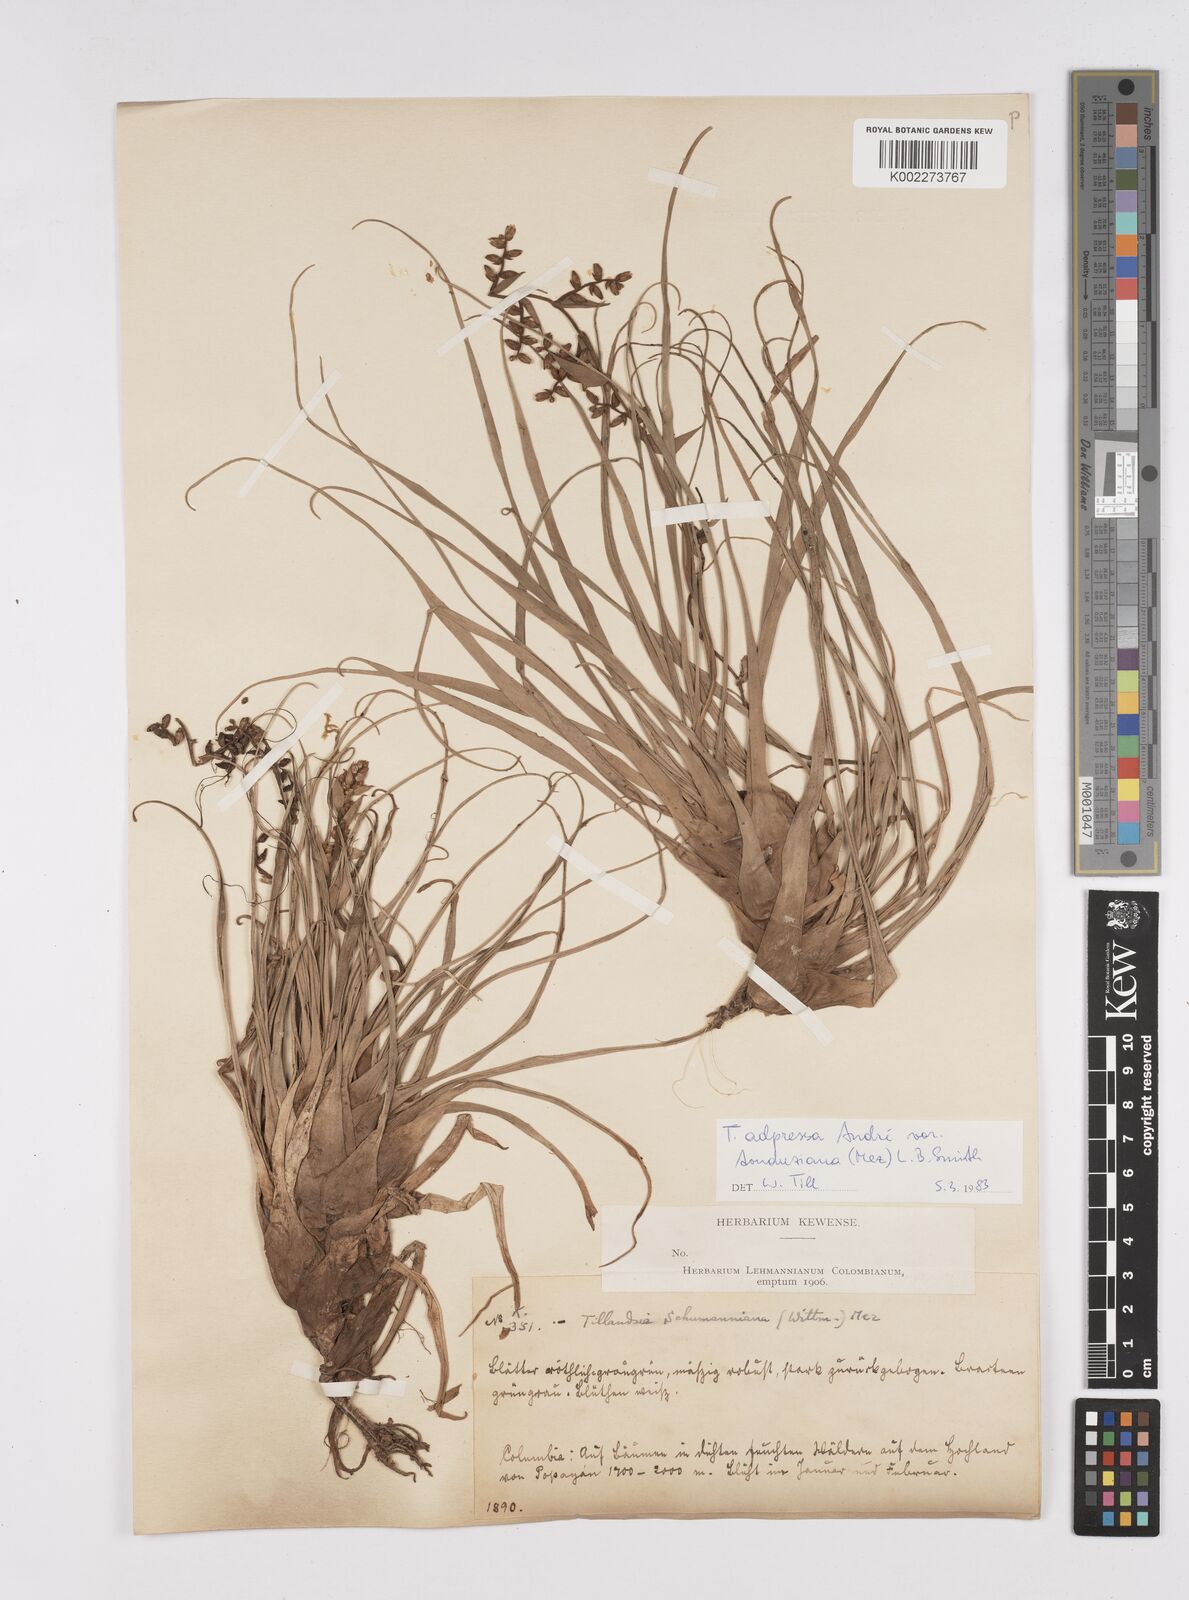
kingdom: Plantae
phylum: Tracheophyta
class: Liliopsida
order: Poales
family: Bromeliaceae
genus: Racinaea
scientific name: Racinaea schumanniana
